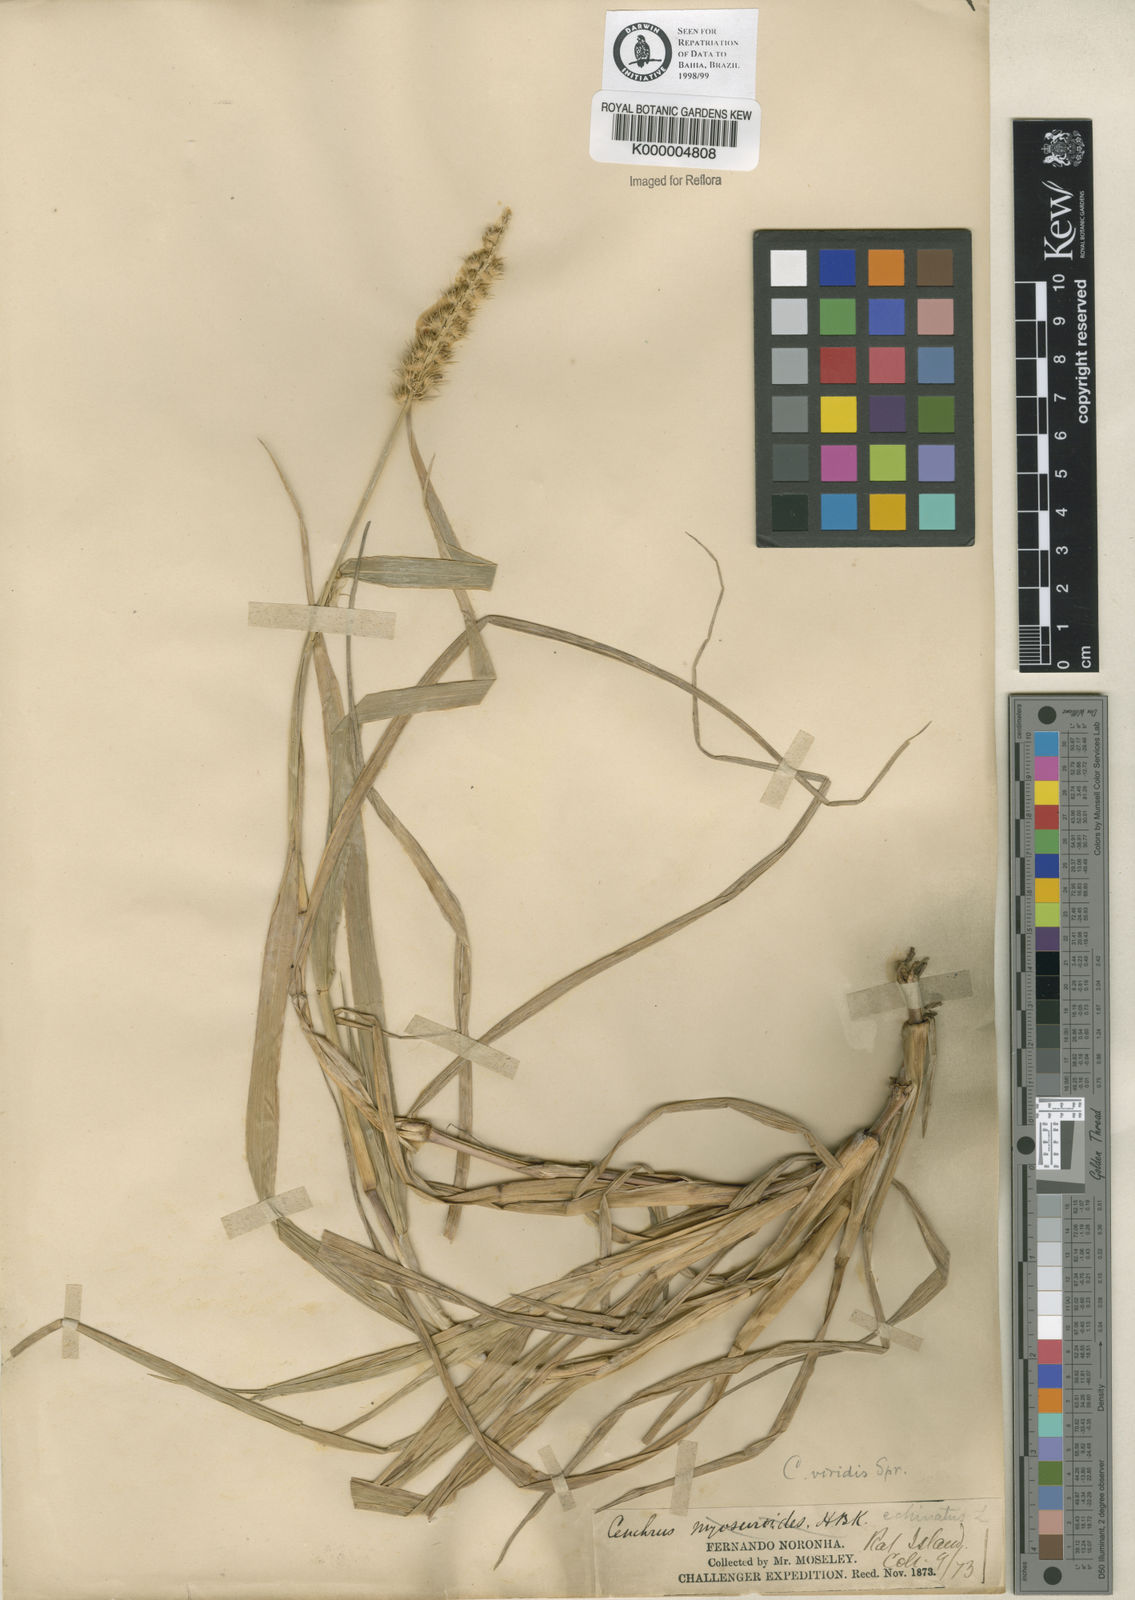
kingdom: Plantae
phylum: Tracheophyta
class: Liliopsida
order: Poales
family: Poaceae
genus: Cenchrus
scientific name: Cenchrus echinatus
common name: Southern sandbur
